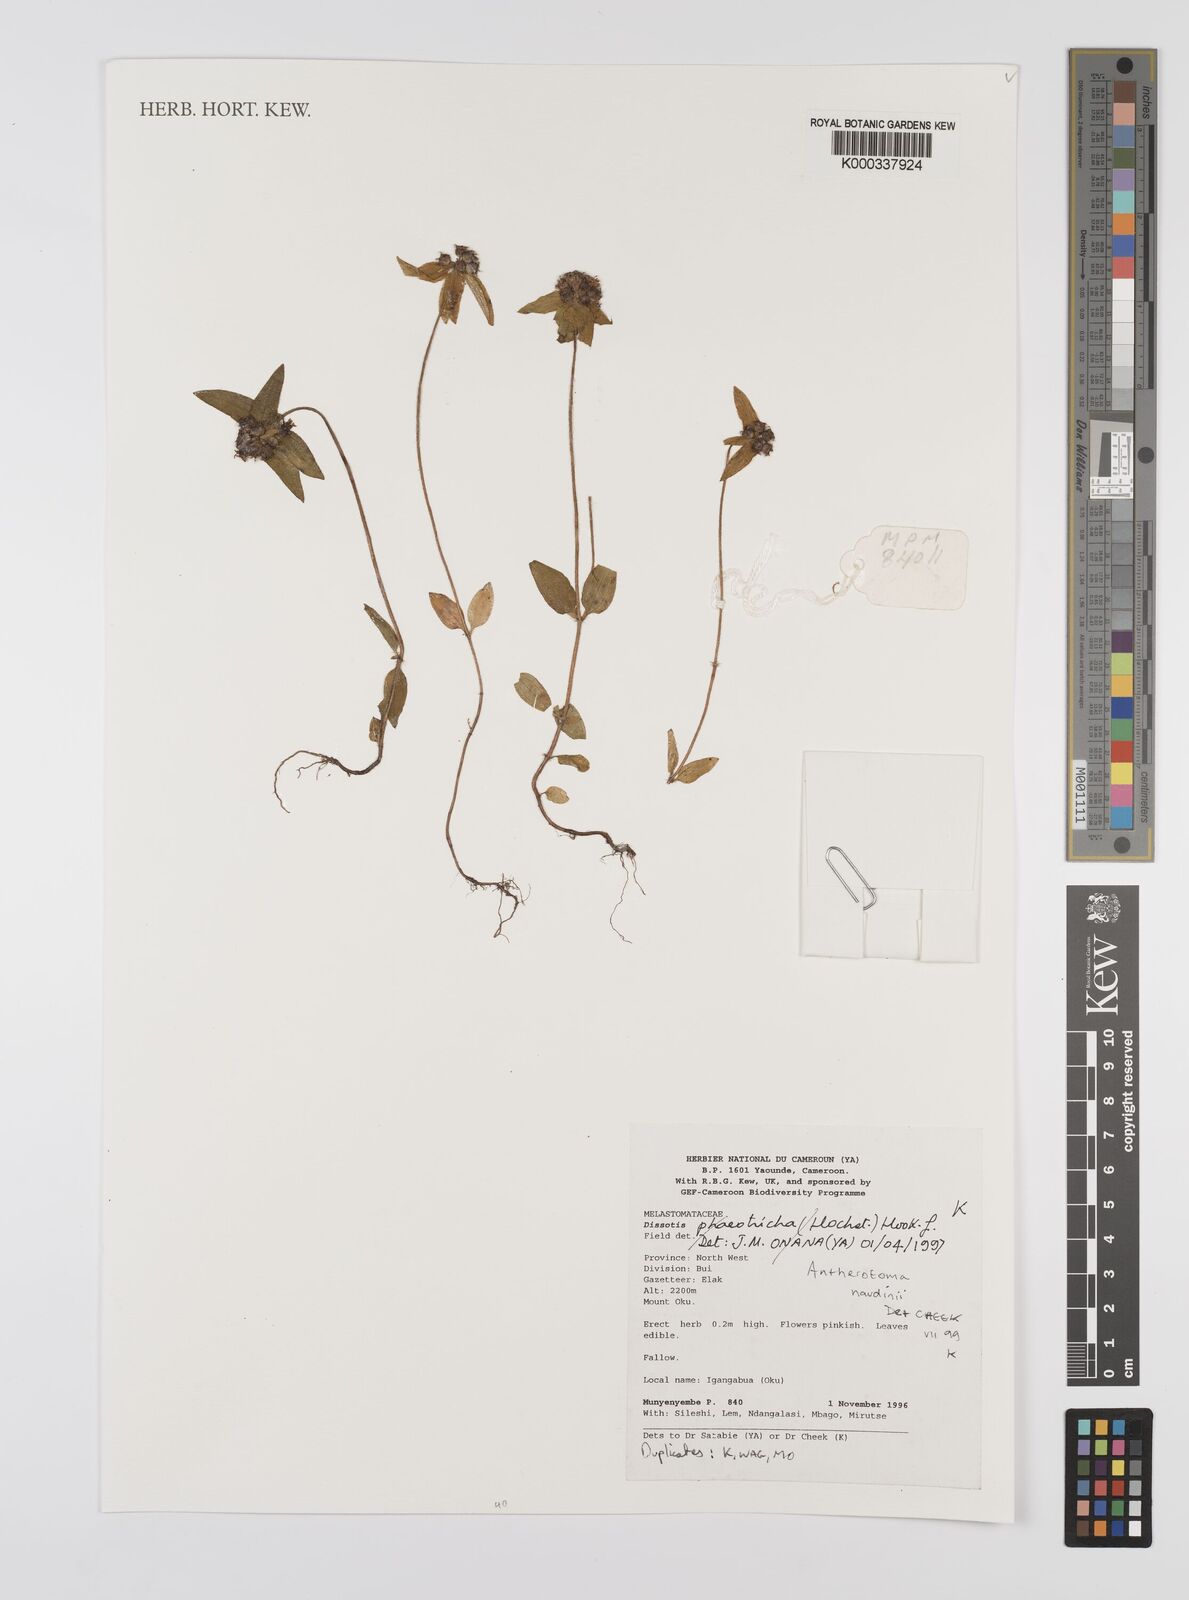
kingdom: Plantae
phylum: Tracheophyta
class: Magnoliopsida
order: Myrtales
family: Melastomataceae
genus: Dissotis
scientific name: Dissotis
